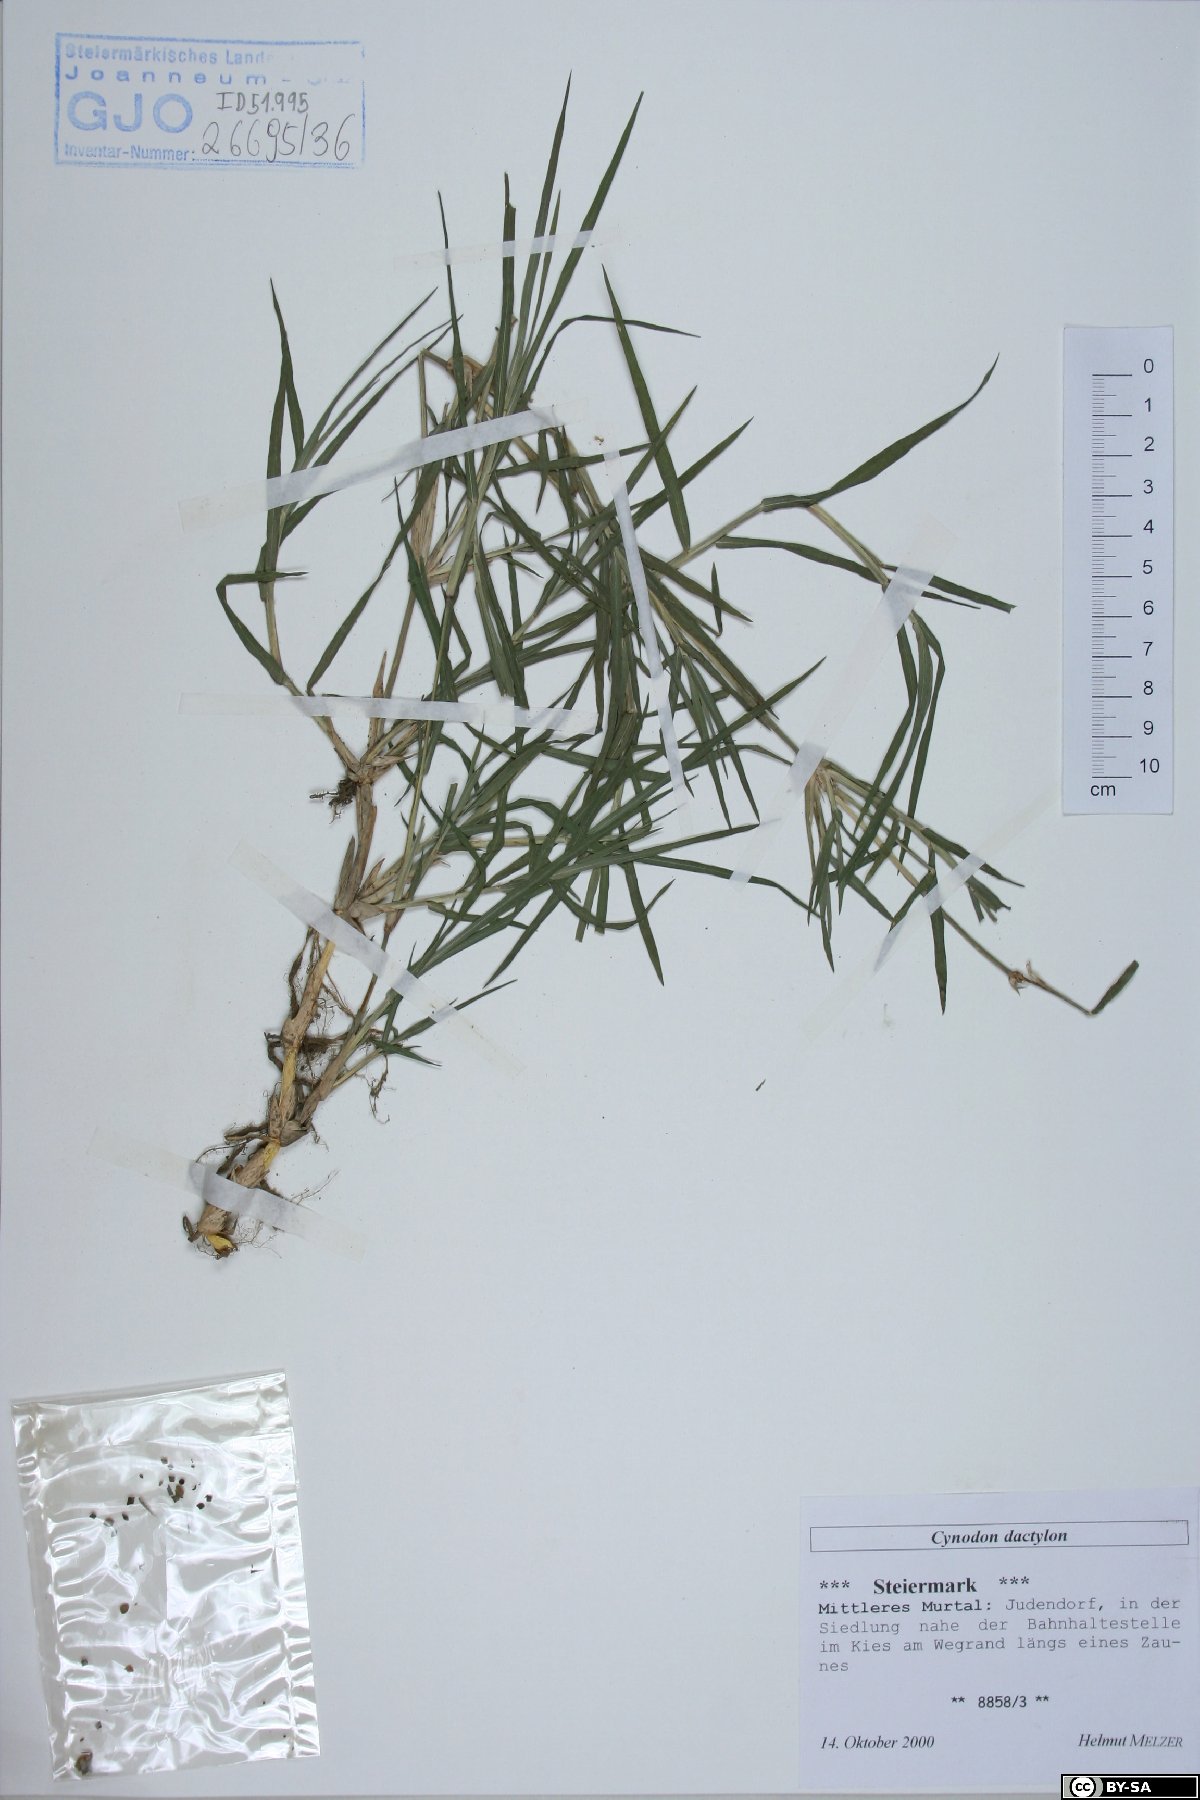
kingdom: Plantae
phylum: Tracheophyta
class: Liliopsida
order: Poales
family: Poaceae
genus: Cynodon
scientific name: Cynodon dactylon
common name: Bermuda grass
